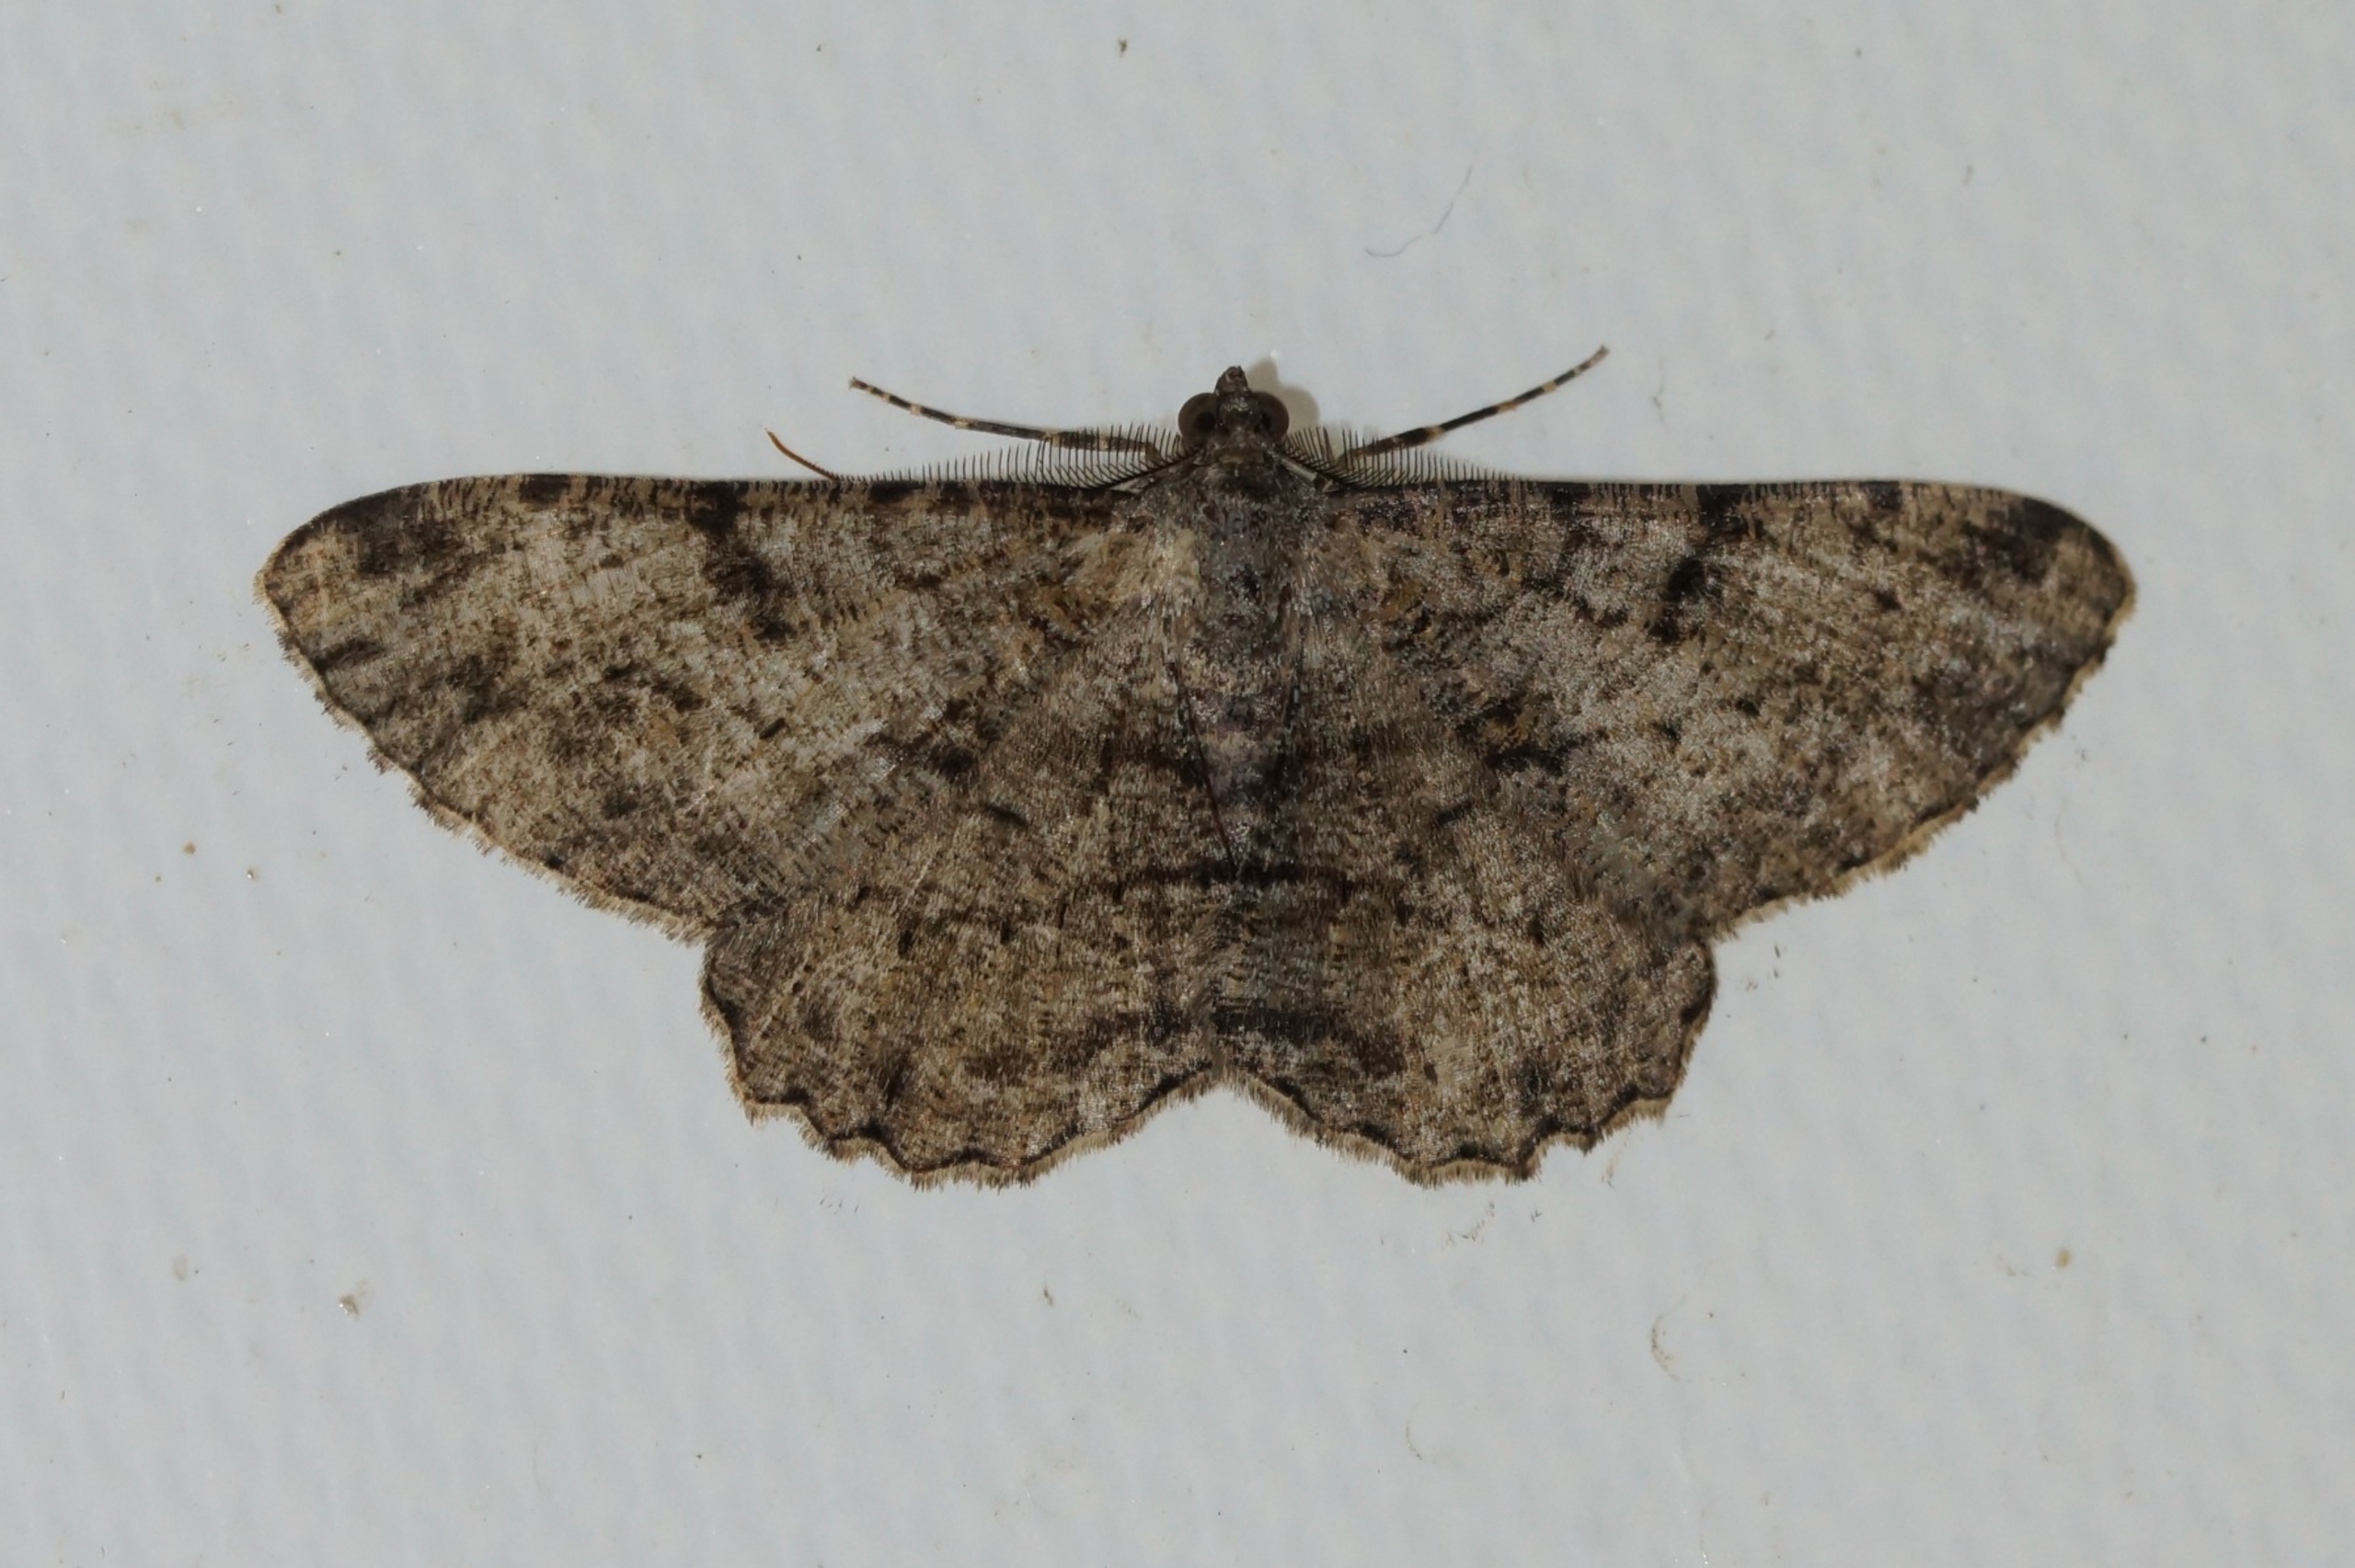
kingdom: Animalia
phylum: Arthropoda
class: Insecta
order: Lepidoptera
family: Geometridae
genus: Peribatodes
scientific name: Peribatodes rhomboidaria
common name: Frugttræ-barkmåler
